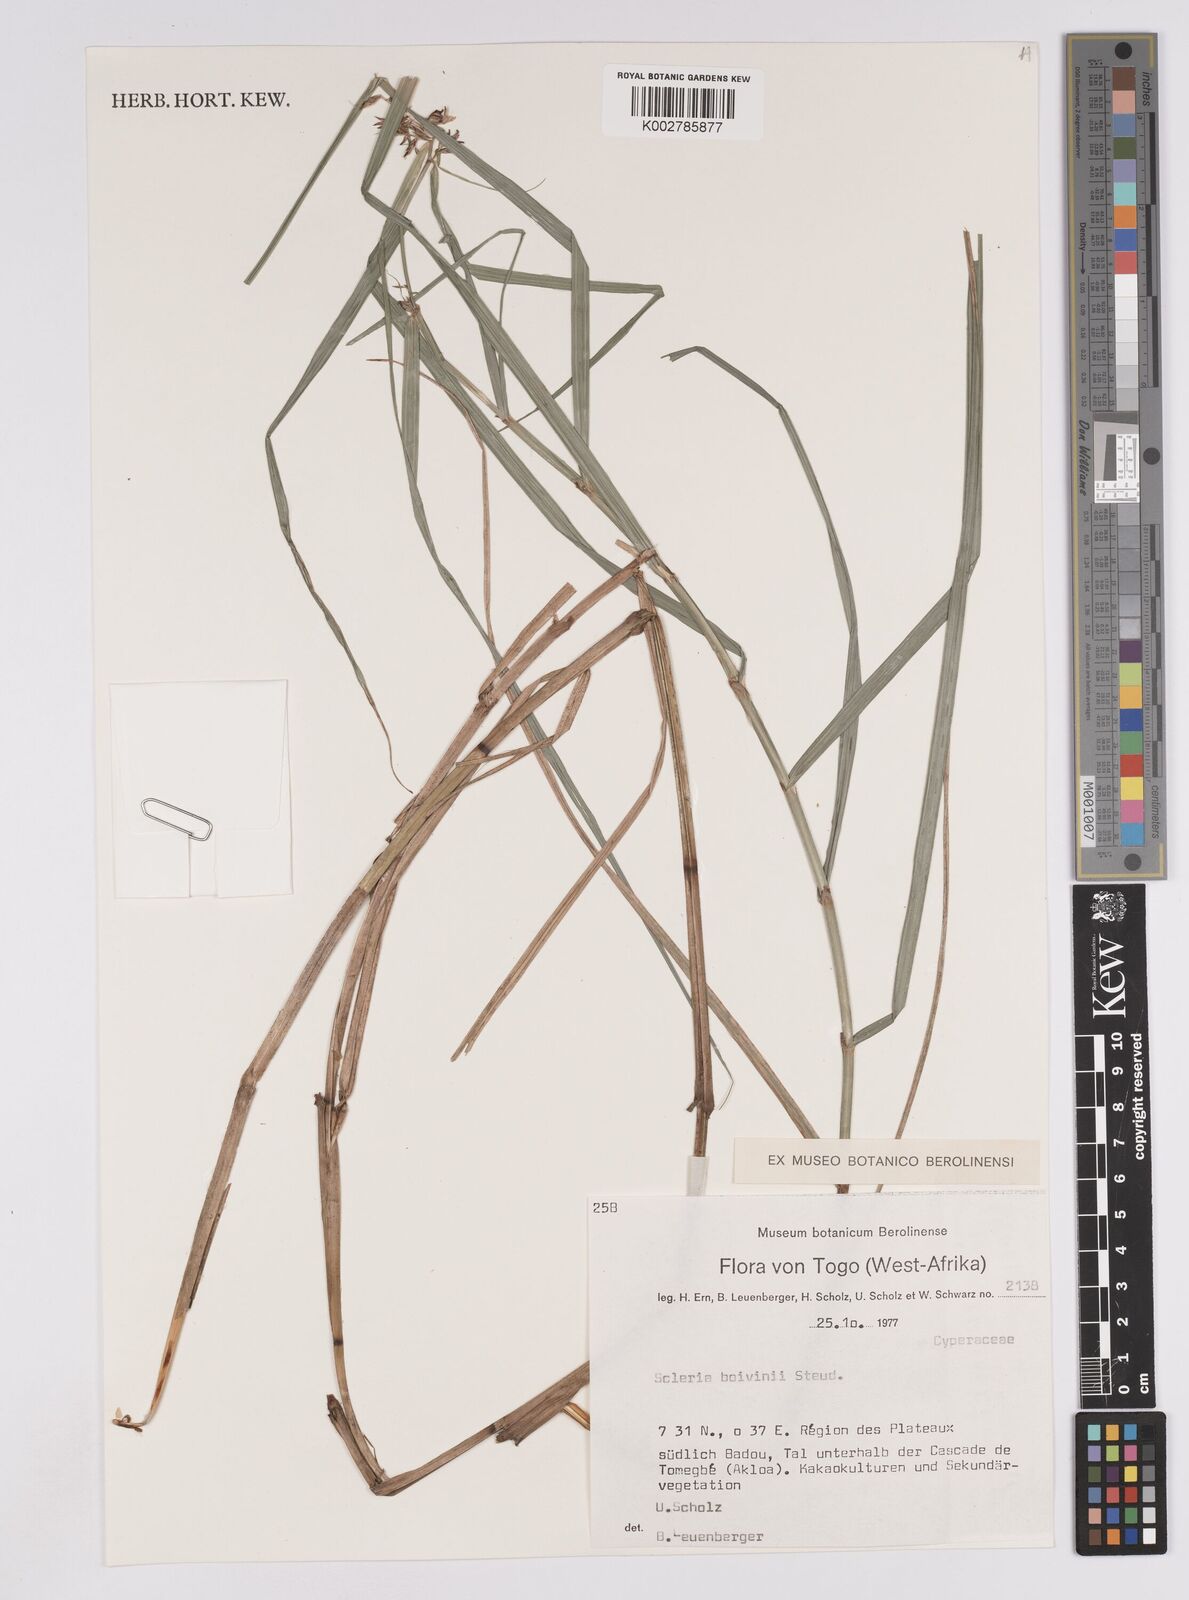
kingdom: Plantae
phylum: Tracheophyta
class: Liliopsida
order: Poales
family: Cyperaceae
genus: Scleria
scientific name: Scleria boivinii
